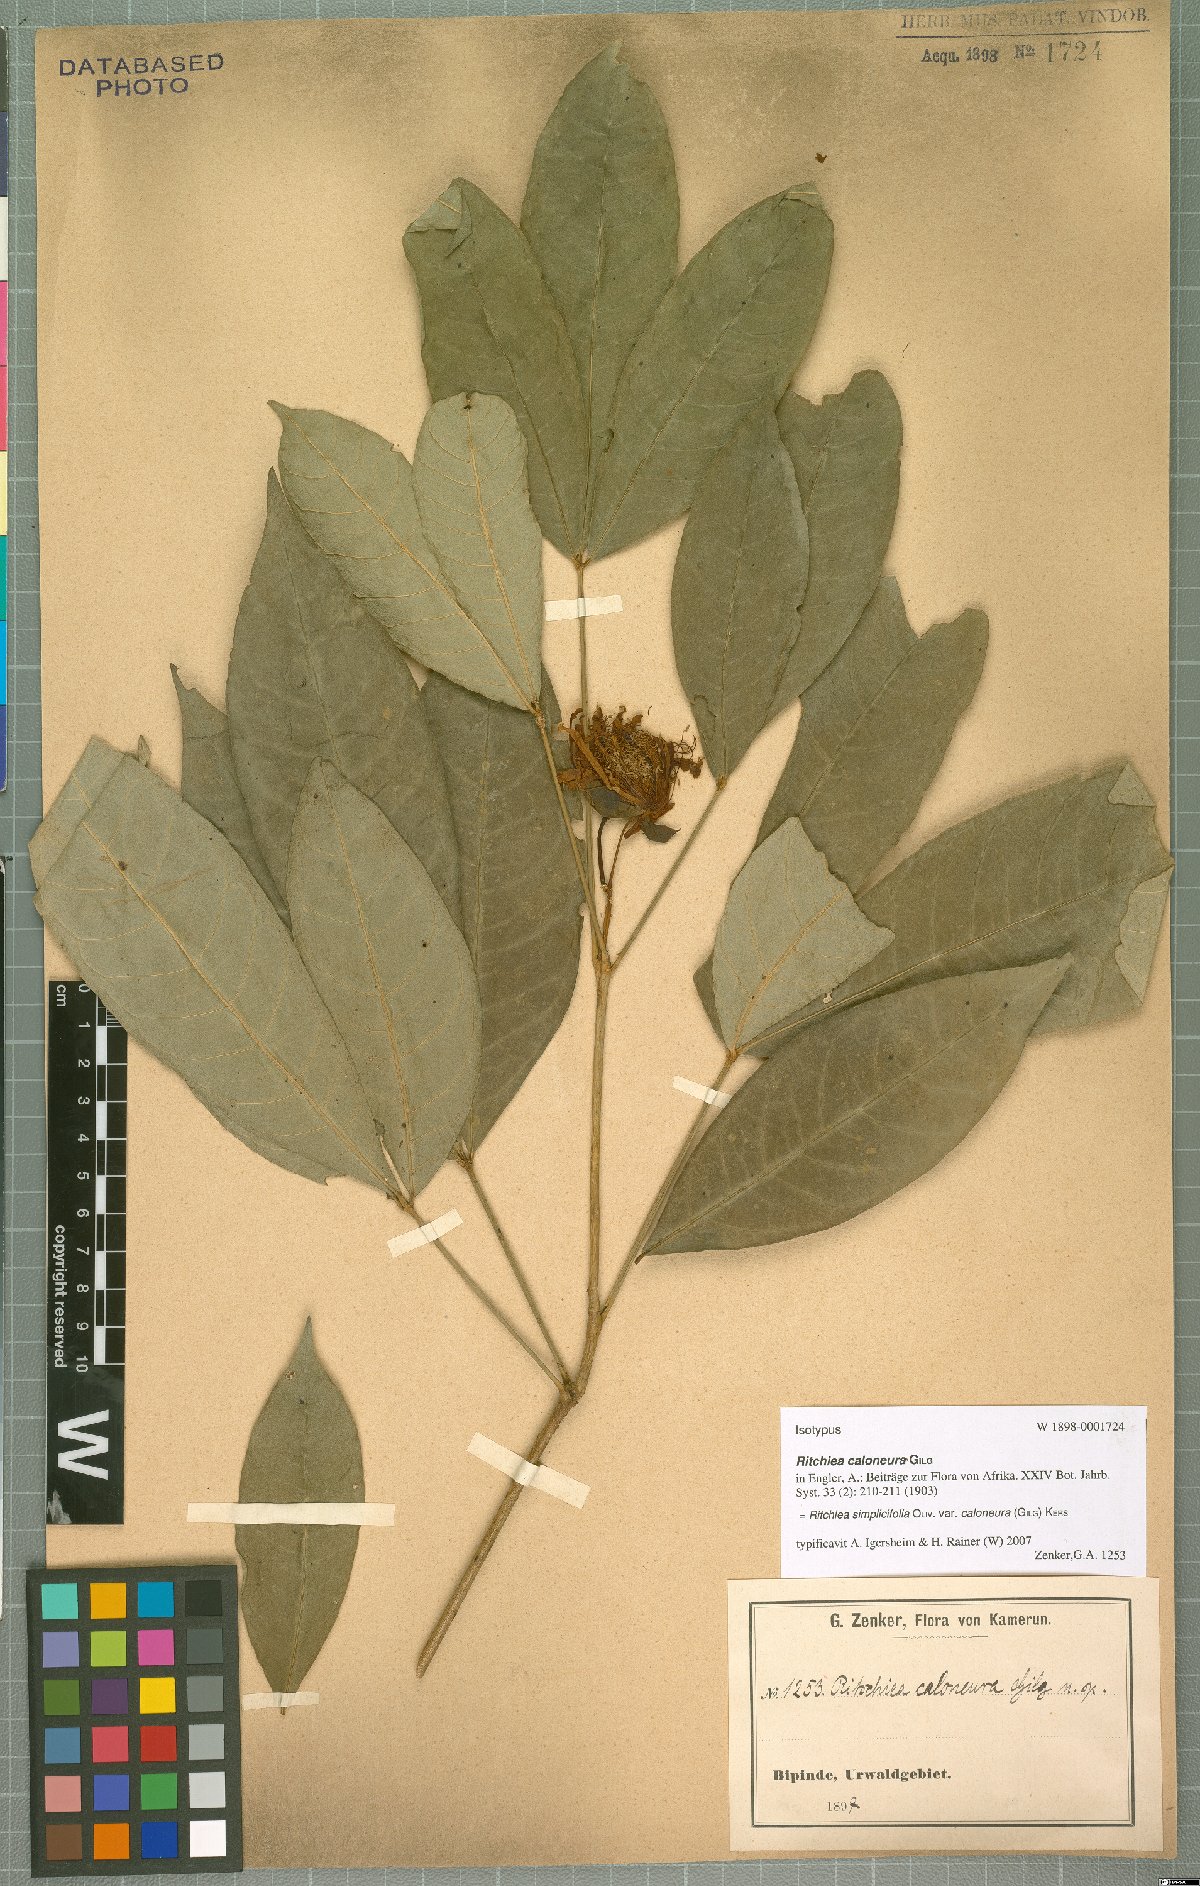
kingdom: Plantae
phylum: Tracheophyta
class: Magnoliopsida
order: Brassicales
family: Capparaceae
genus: Ritchiea
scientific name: Ritchiea simplicifolia
